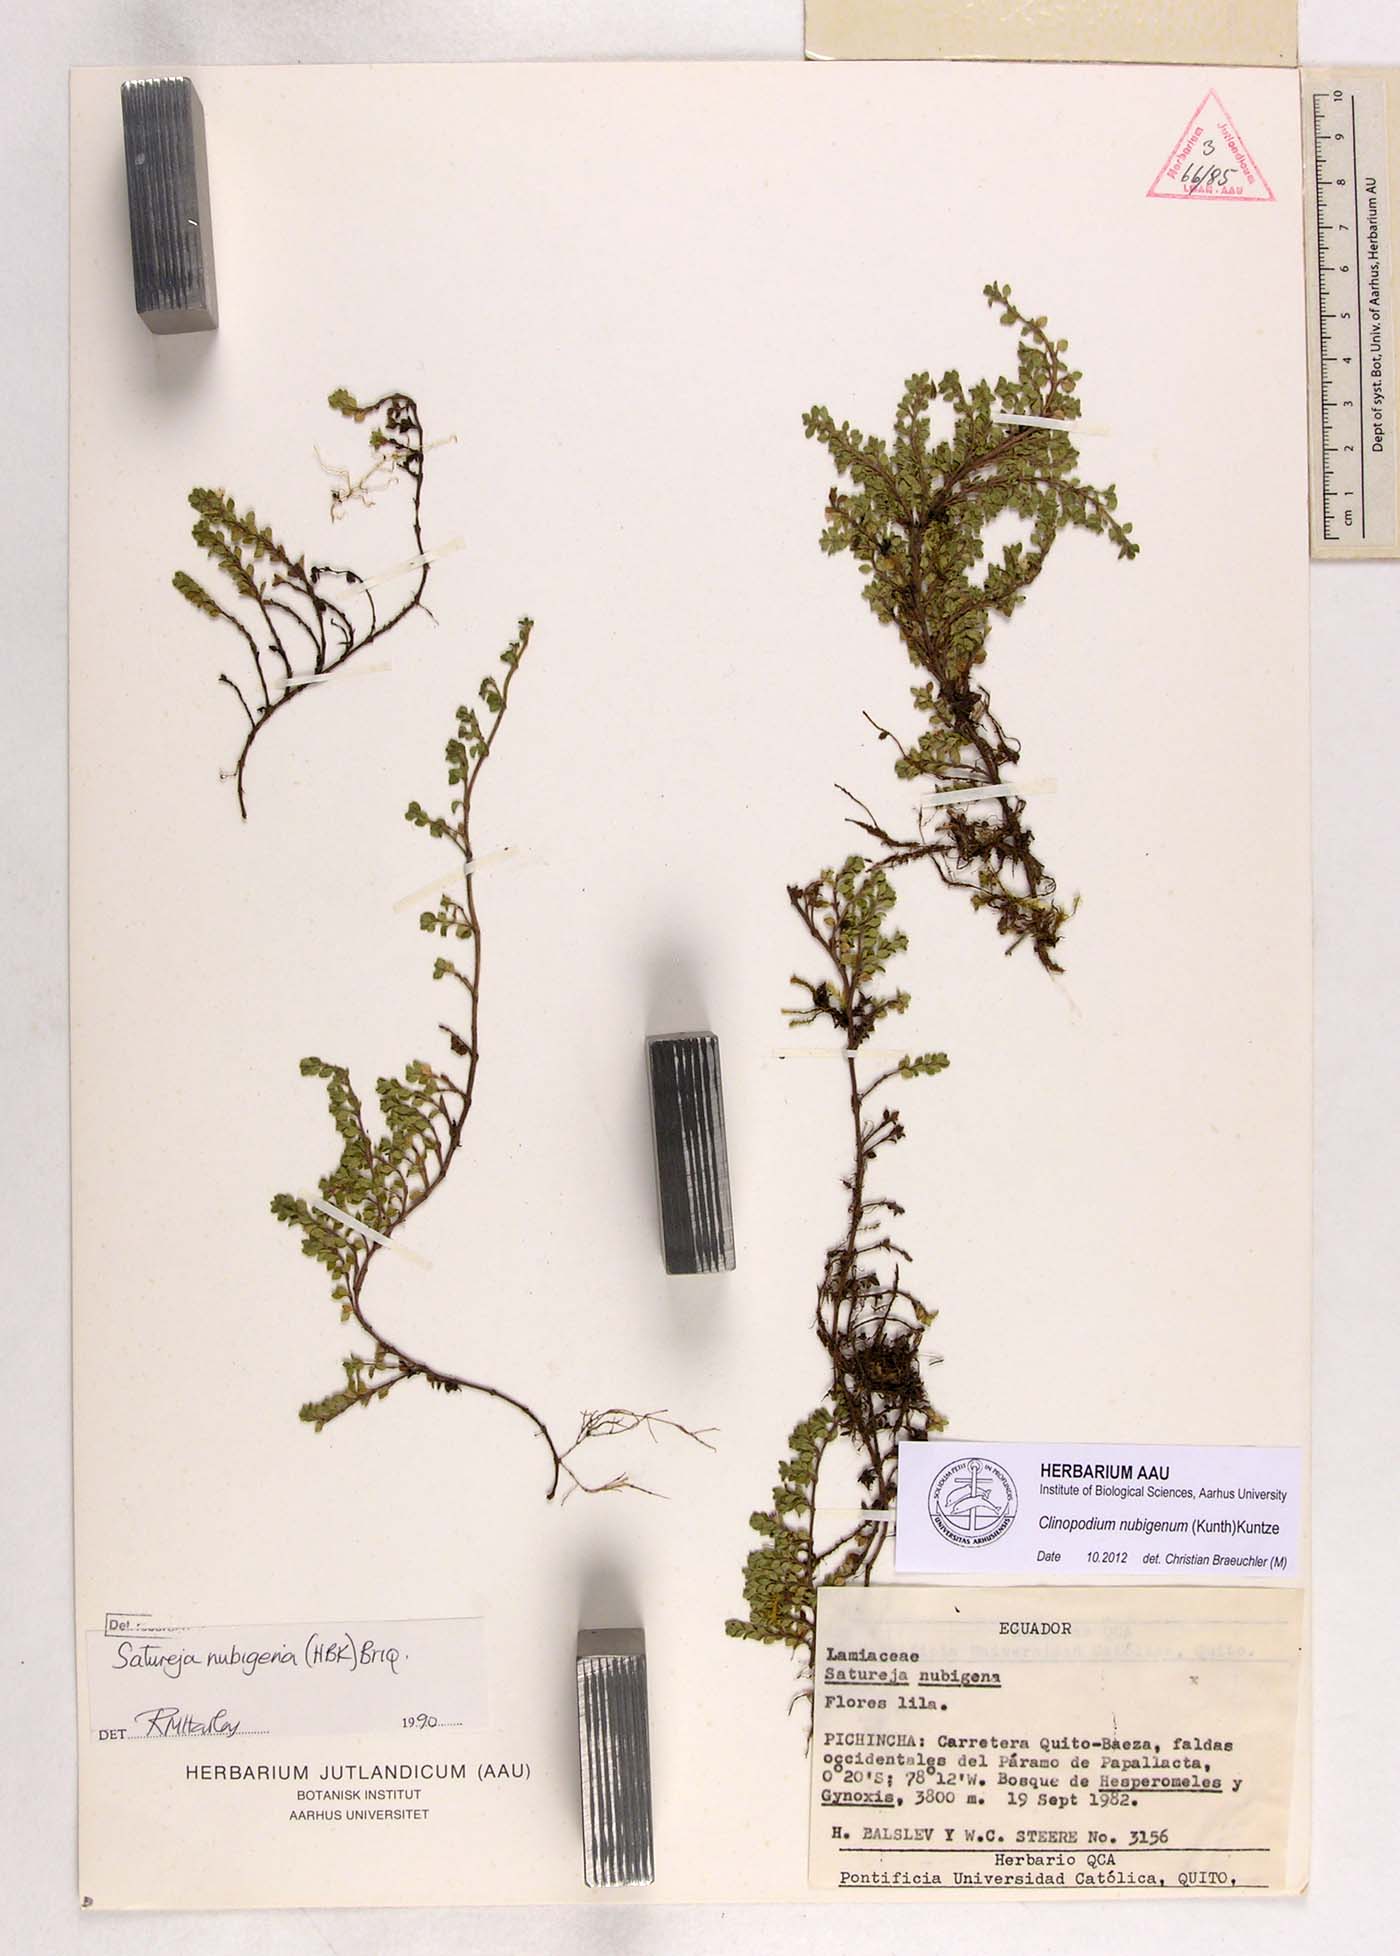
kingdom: Plantae
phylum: Tracheophyta
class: Magnoliopsida
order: Lamiales
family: Lamiaceae
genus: Clinopodium
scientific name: Clinopodium nubigenum
